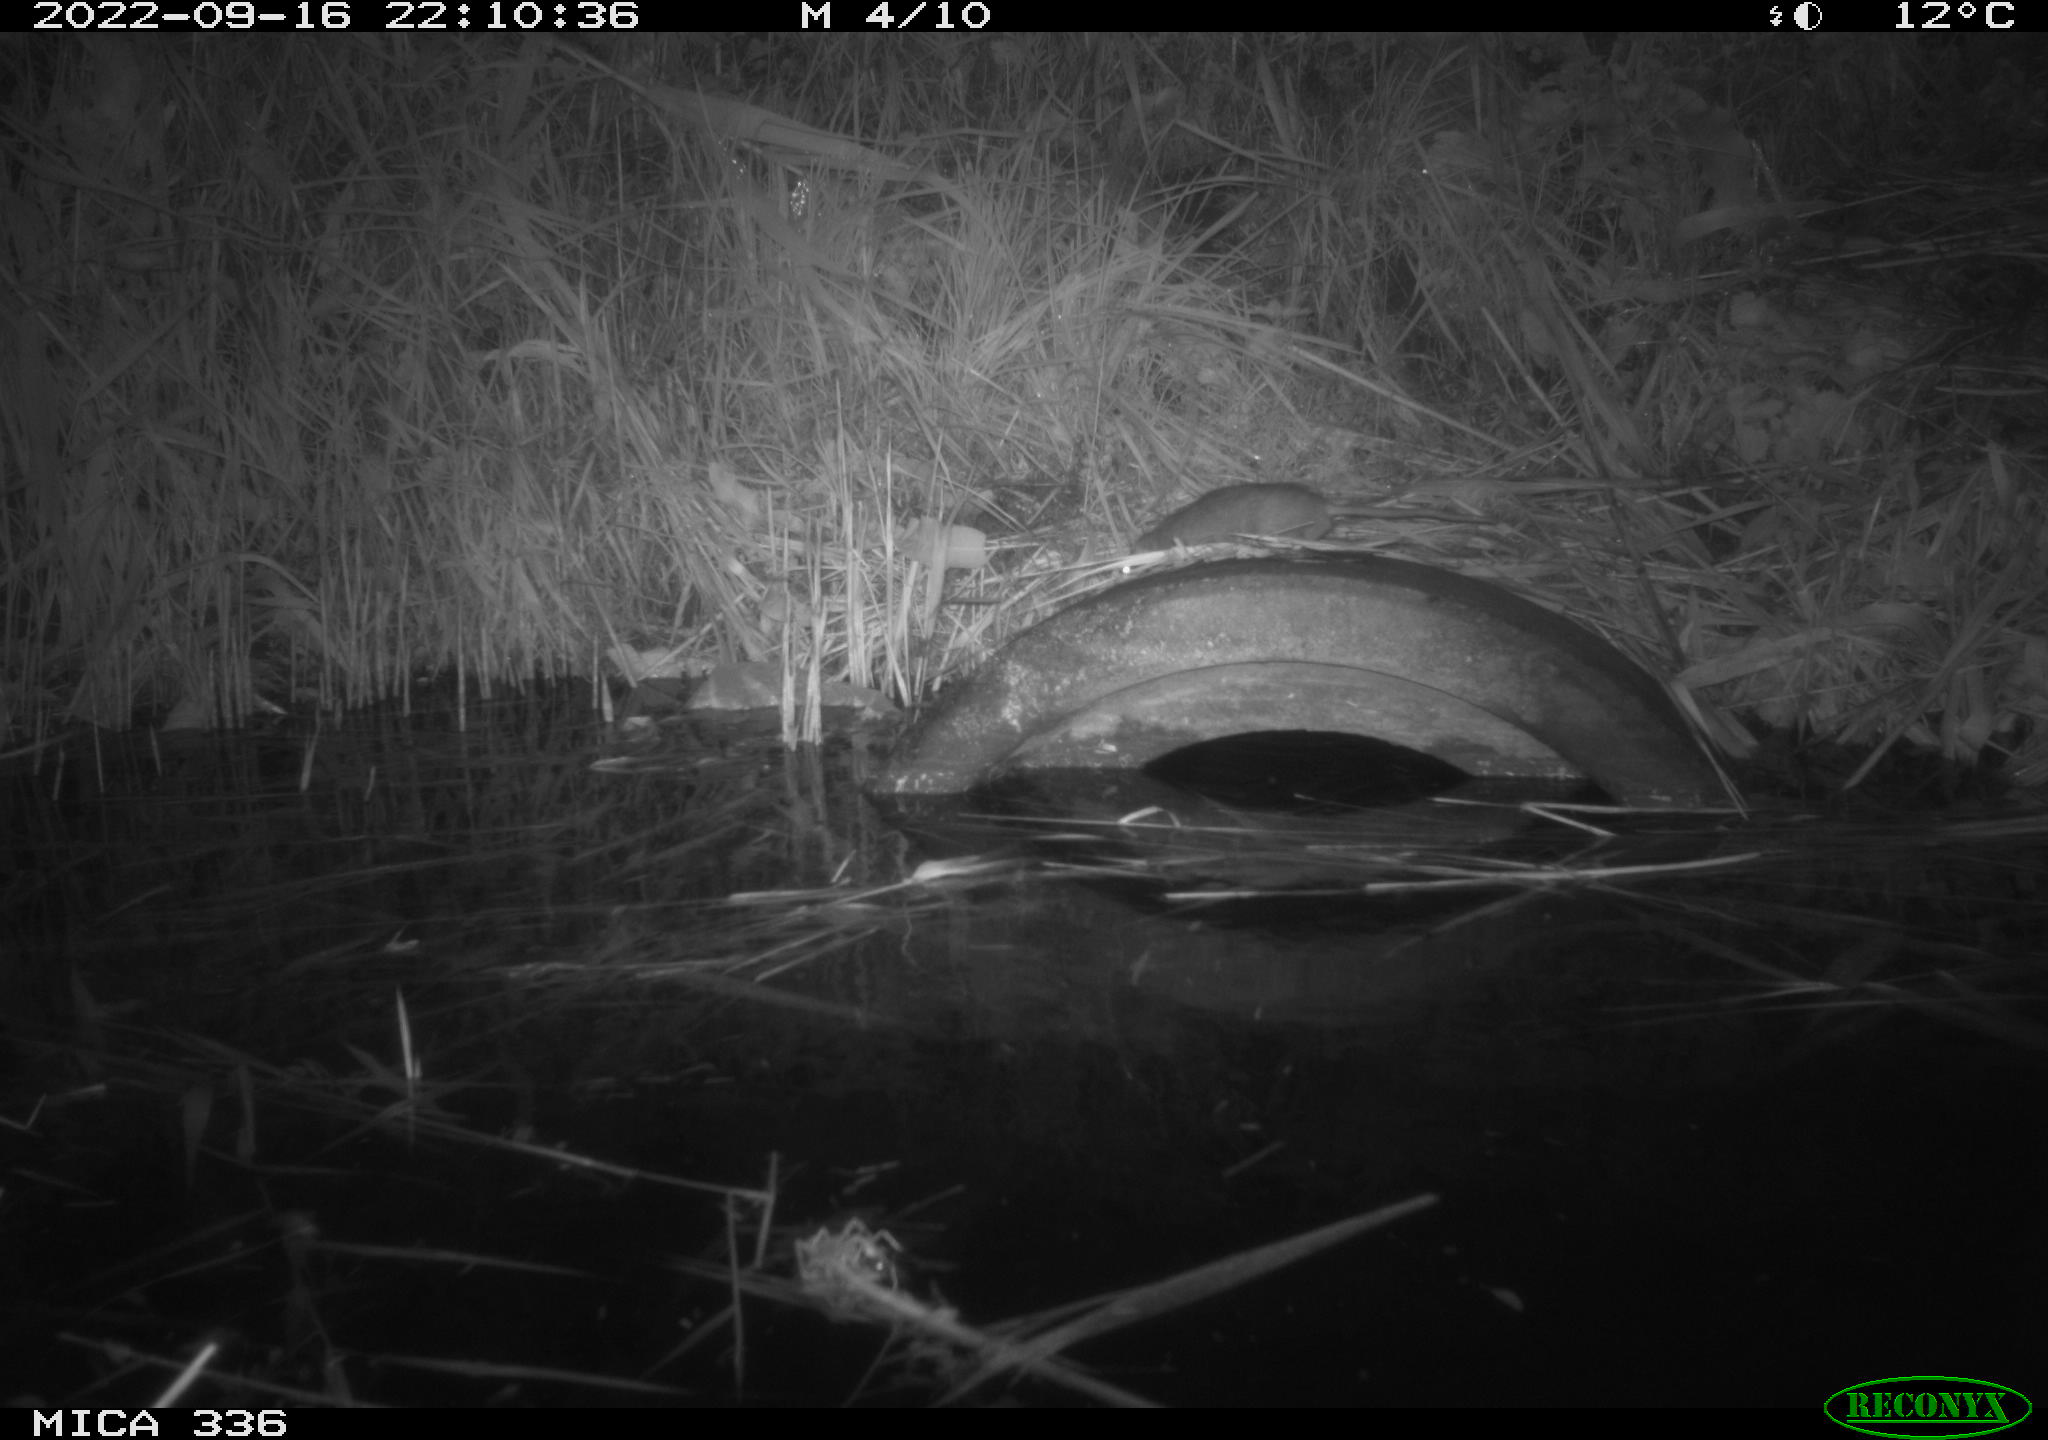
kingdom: Animalia
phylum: Chordata
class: Mammalia
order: Rodentia
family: Muridae
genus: Rattus
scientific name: Rattus norvegicus
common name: Brown rat
